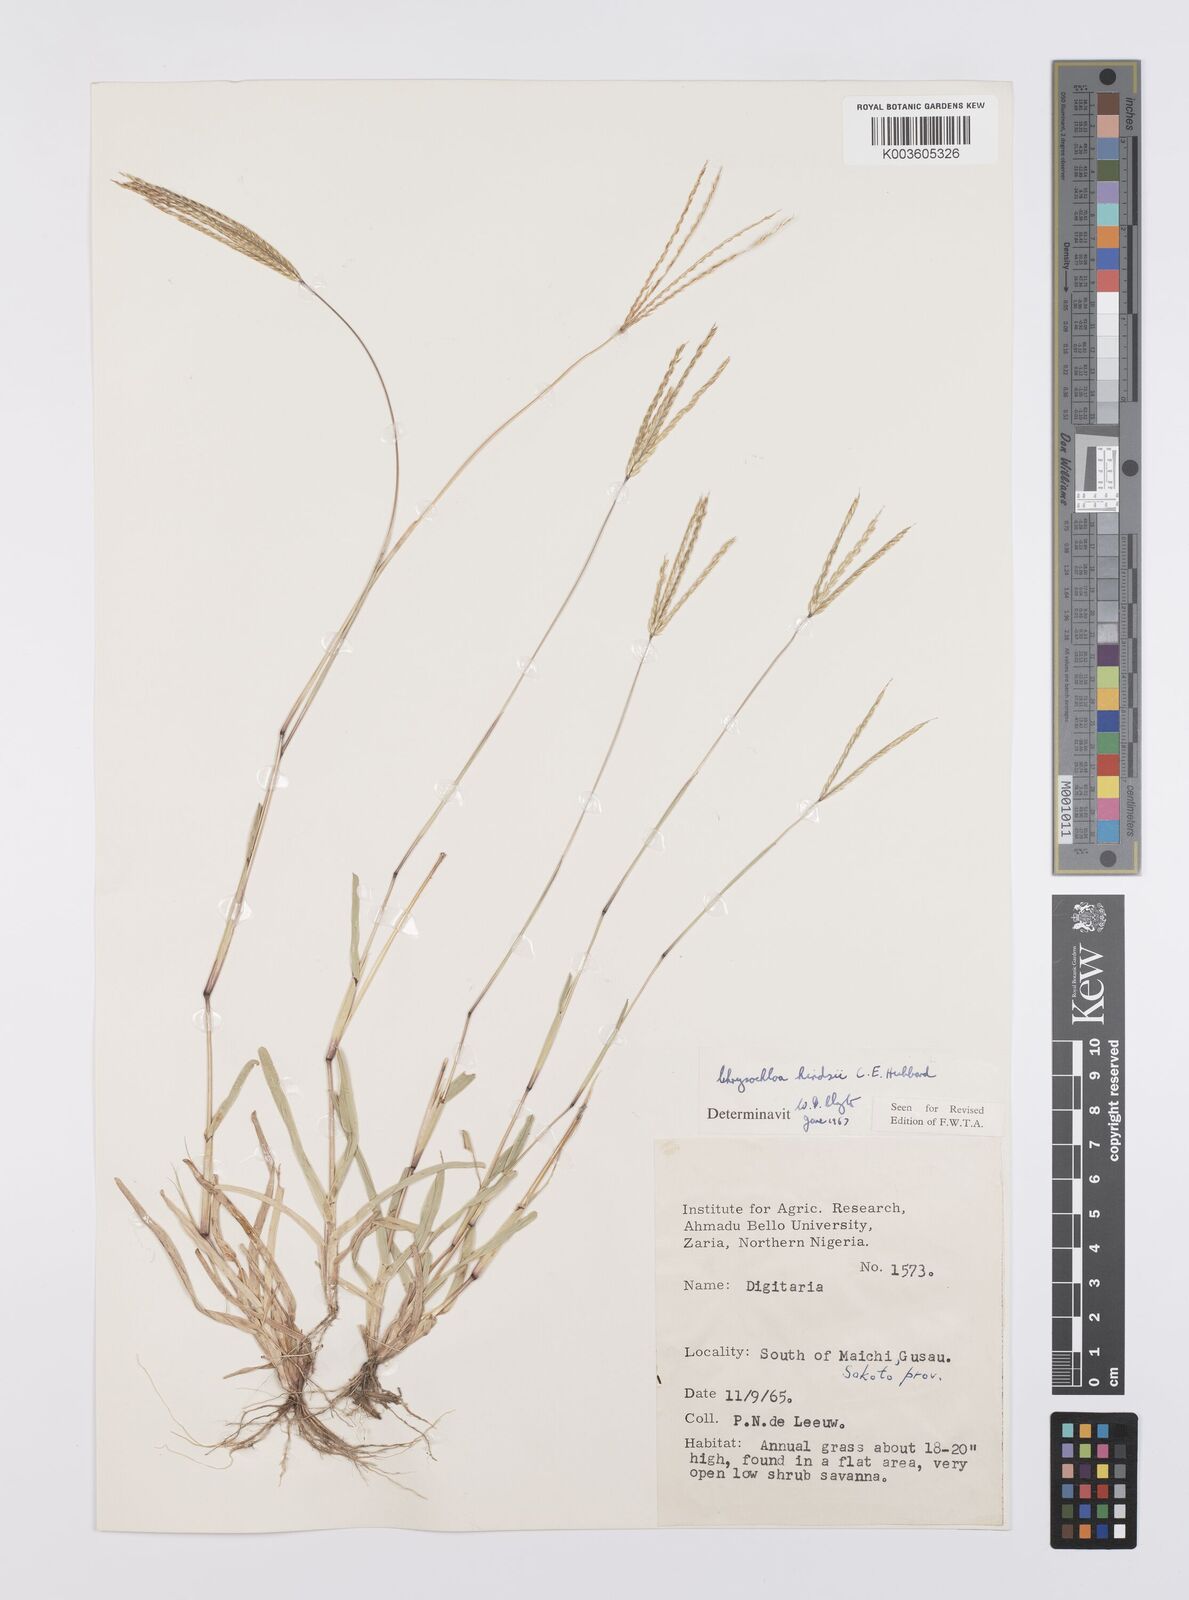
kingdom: Plantae
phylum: Tracheophyta
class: Liliopsida
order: Poales
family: Poaceae
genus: Chrysochloa
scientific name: Chrysochloa hindsii
